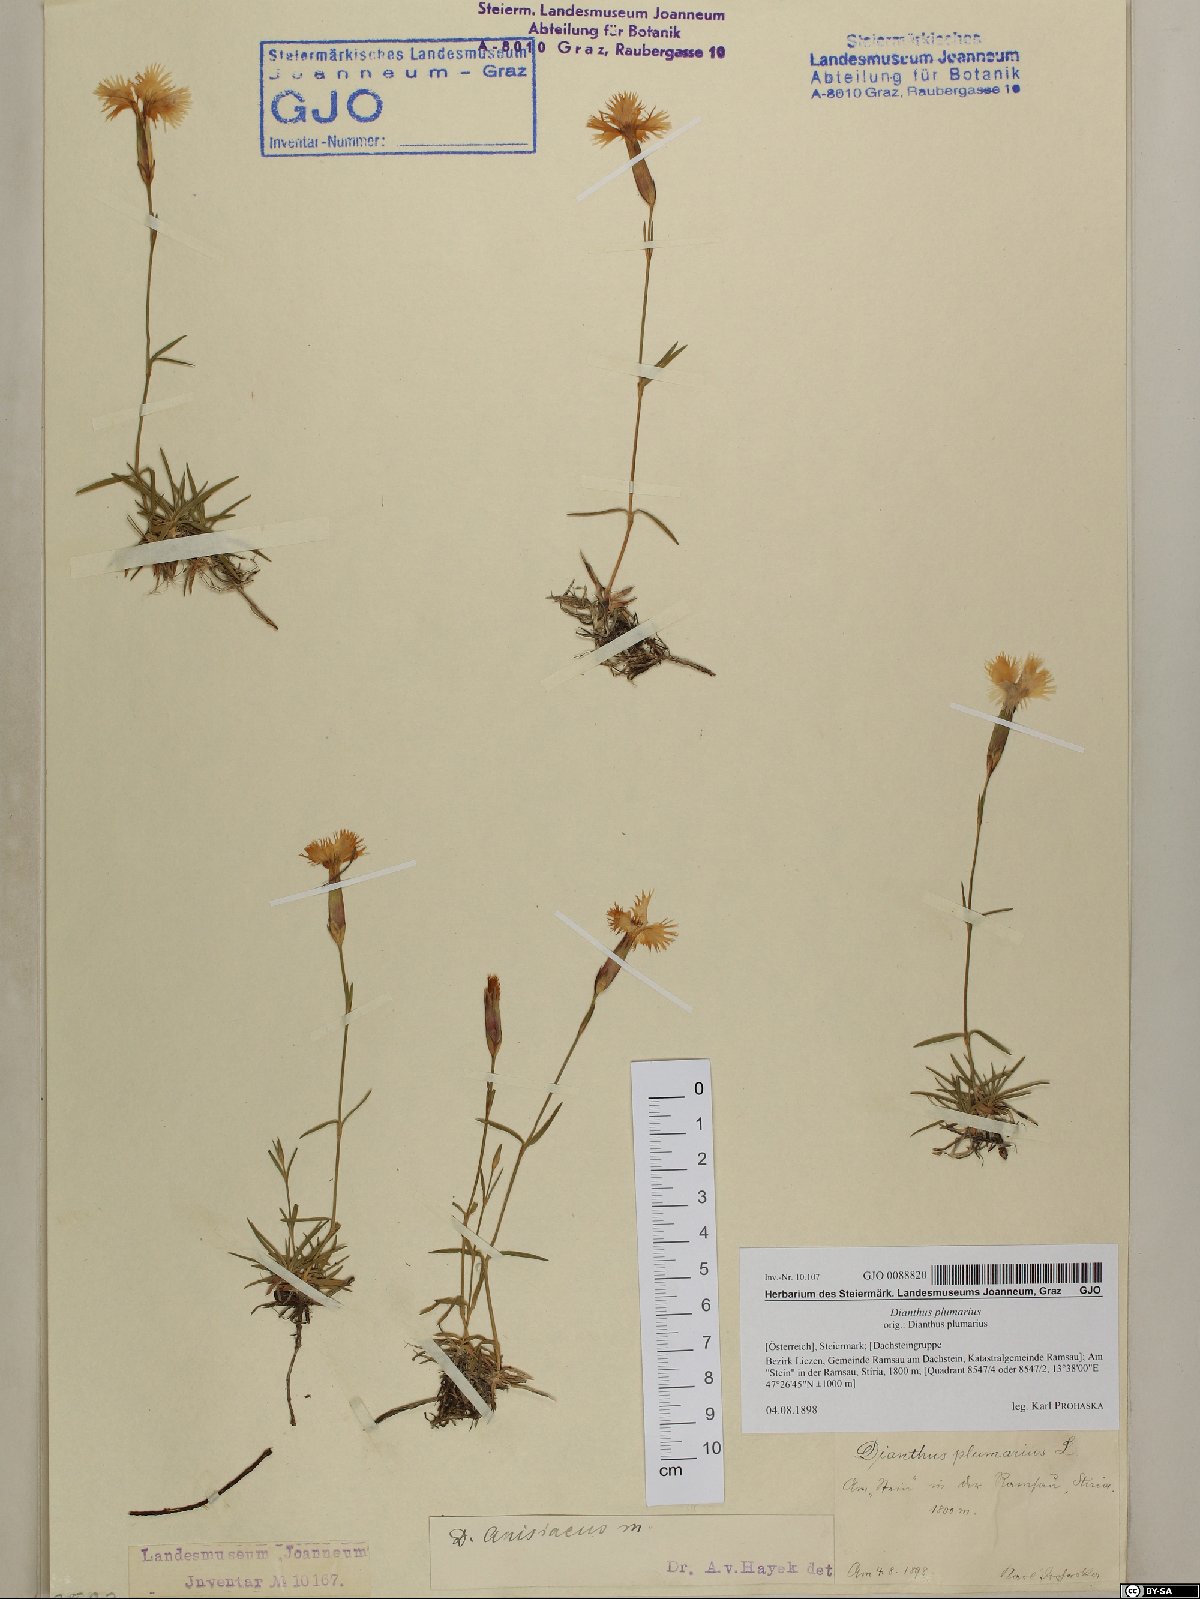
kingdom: Plantae
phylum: Tracheophyta
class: Magnoliopsida
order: Caryophyllales
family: Caryophyllaceae
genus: Dianthus
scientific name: Dianthus plumarius
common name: Pink
